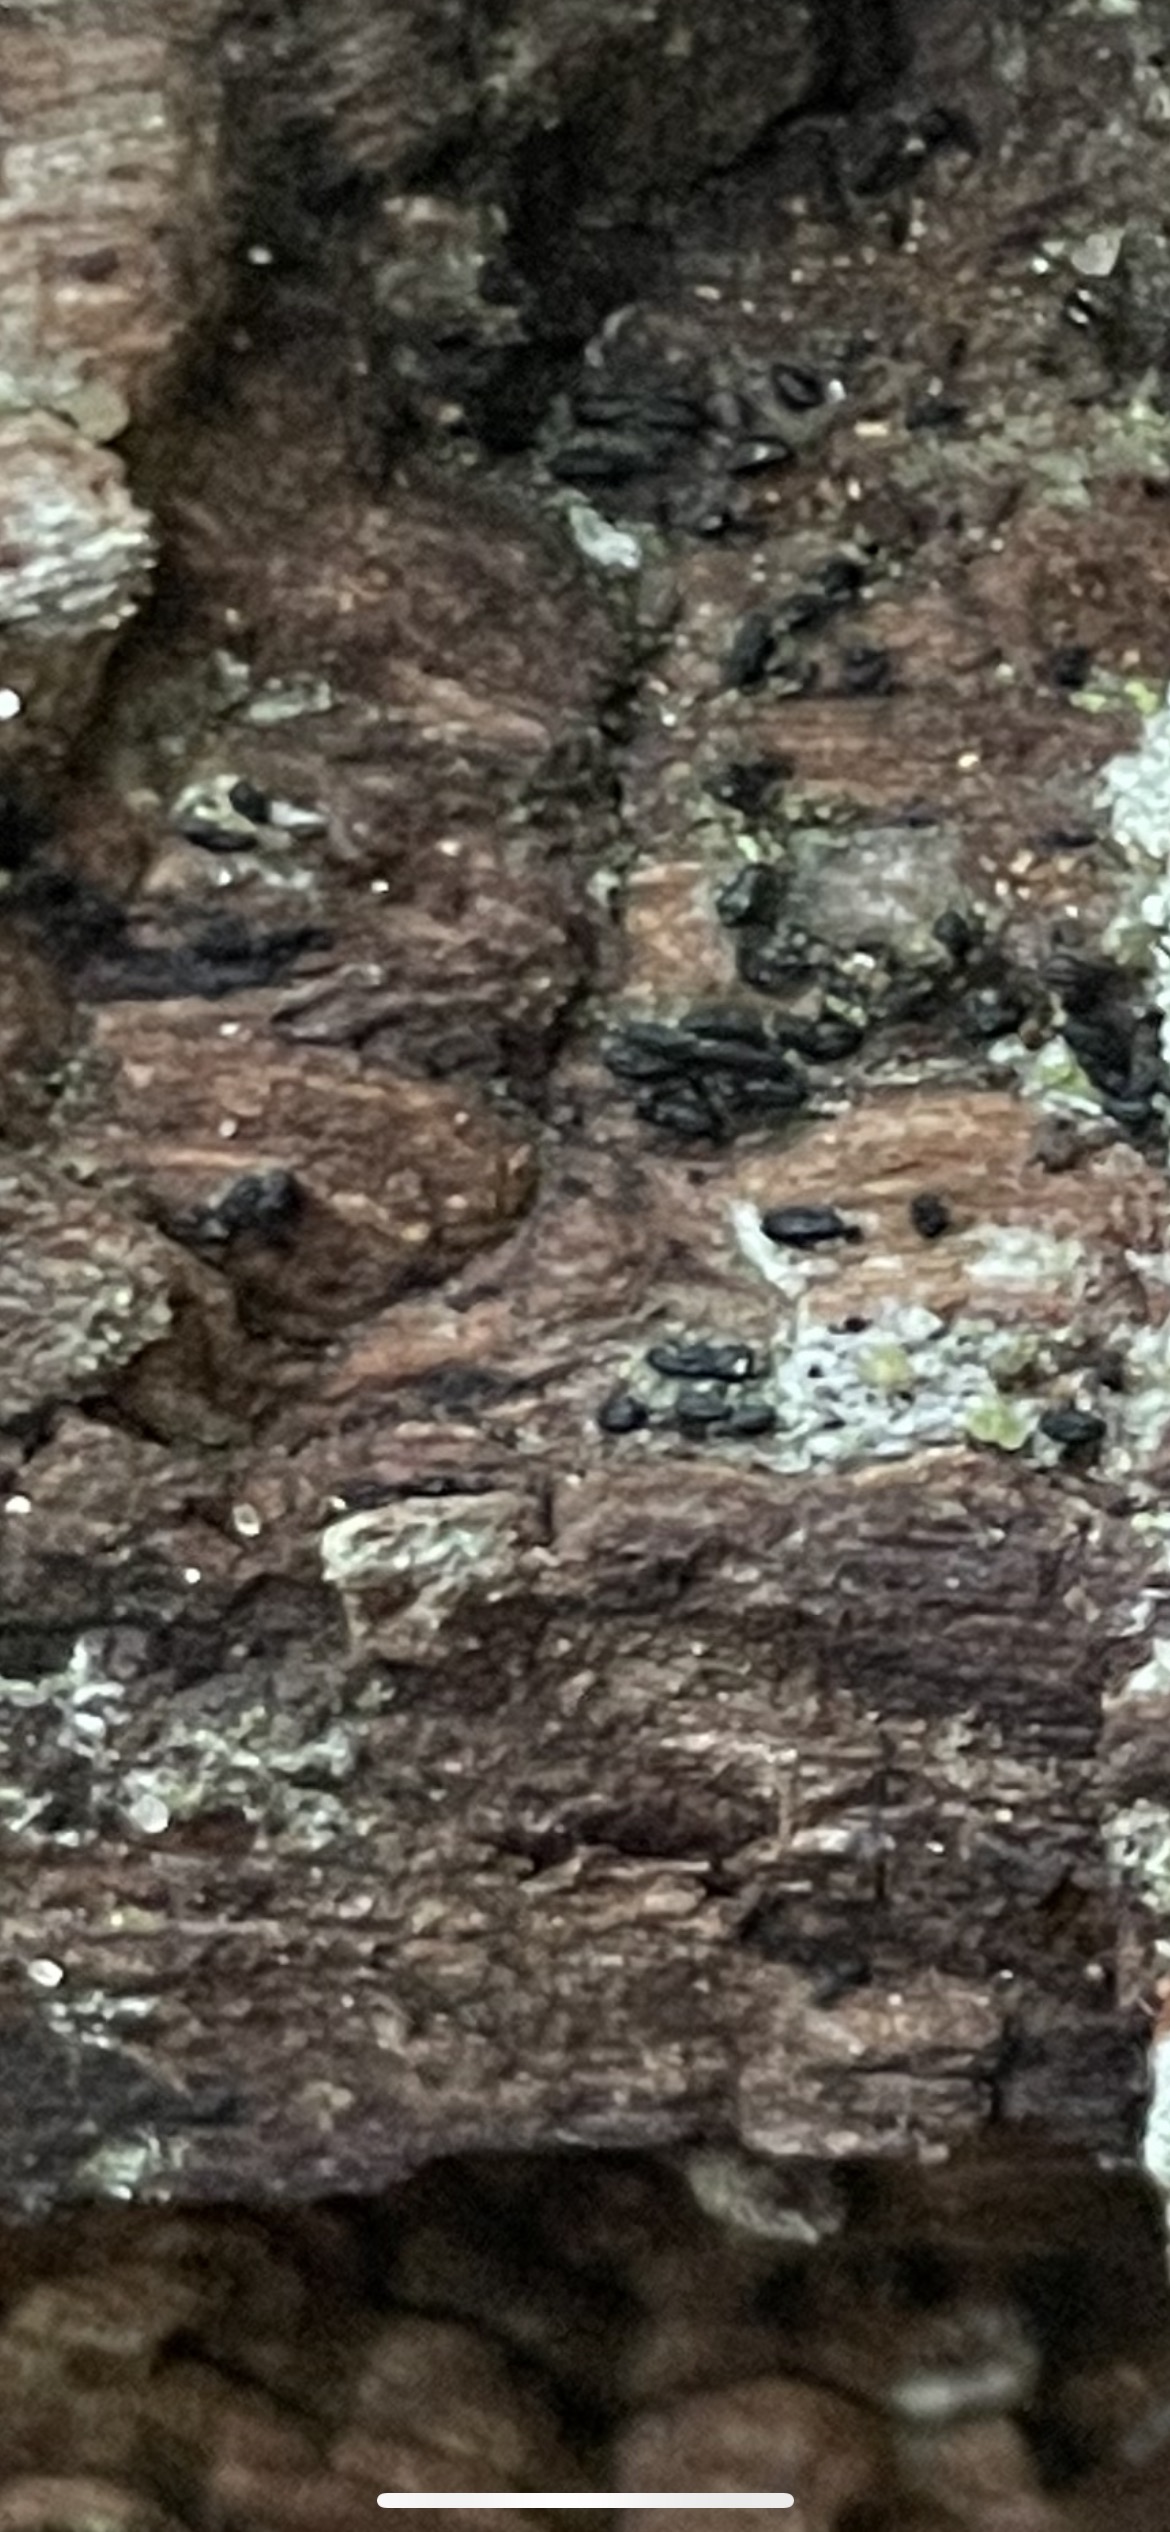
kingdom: Fungi
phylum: Ascomycota
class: Dothideomycetes
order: Hysteriales
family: Hysteriaceae
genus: Hysterium
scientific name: Hysterium
